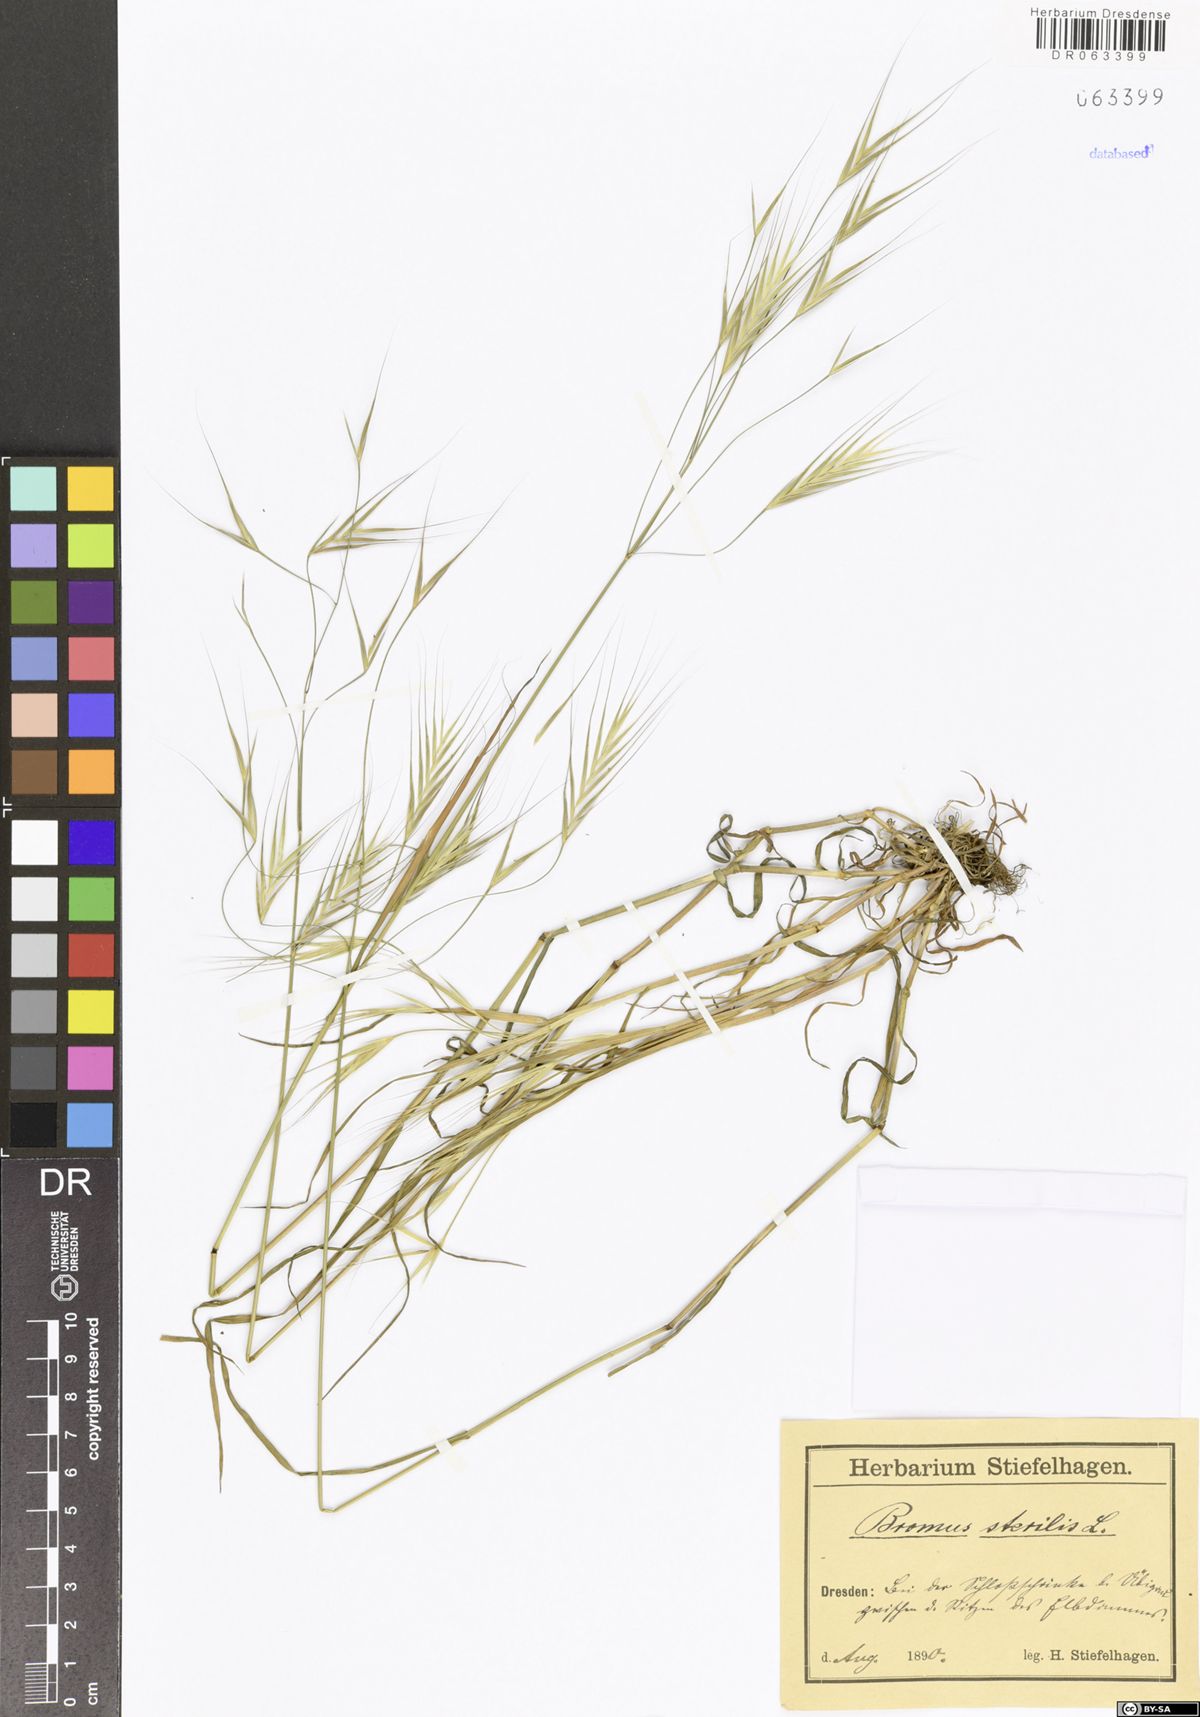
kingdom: Plantae
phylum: Tracheophyta
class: Liliopsida
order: Poales
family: Poaceae
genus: Bromus
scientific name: Bromus sterilis
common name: Poverty brome
